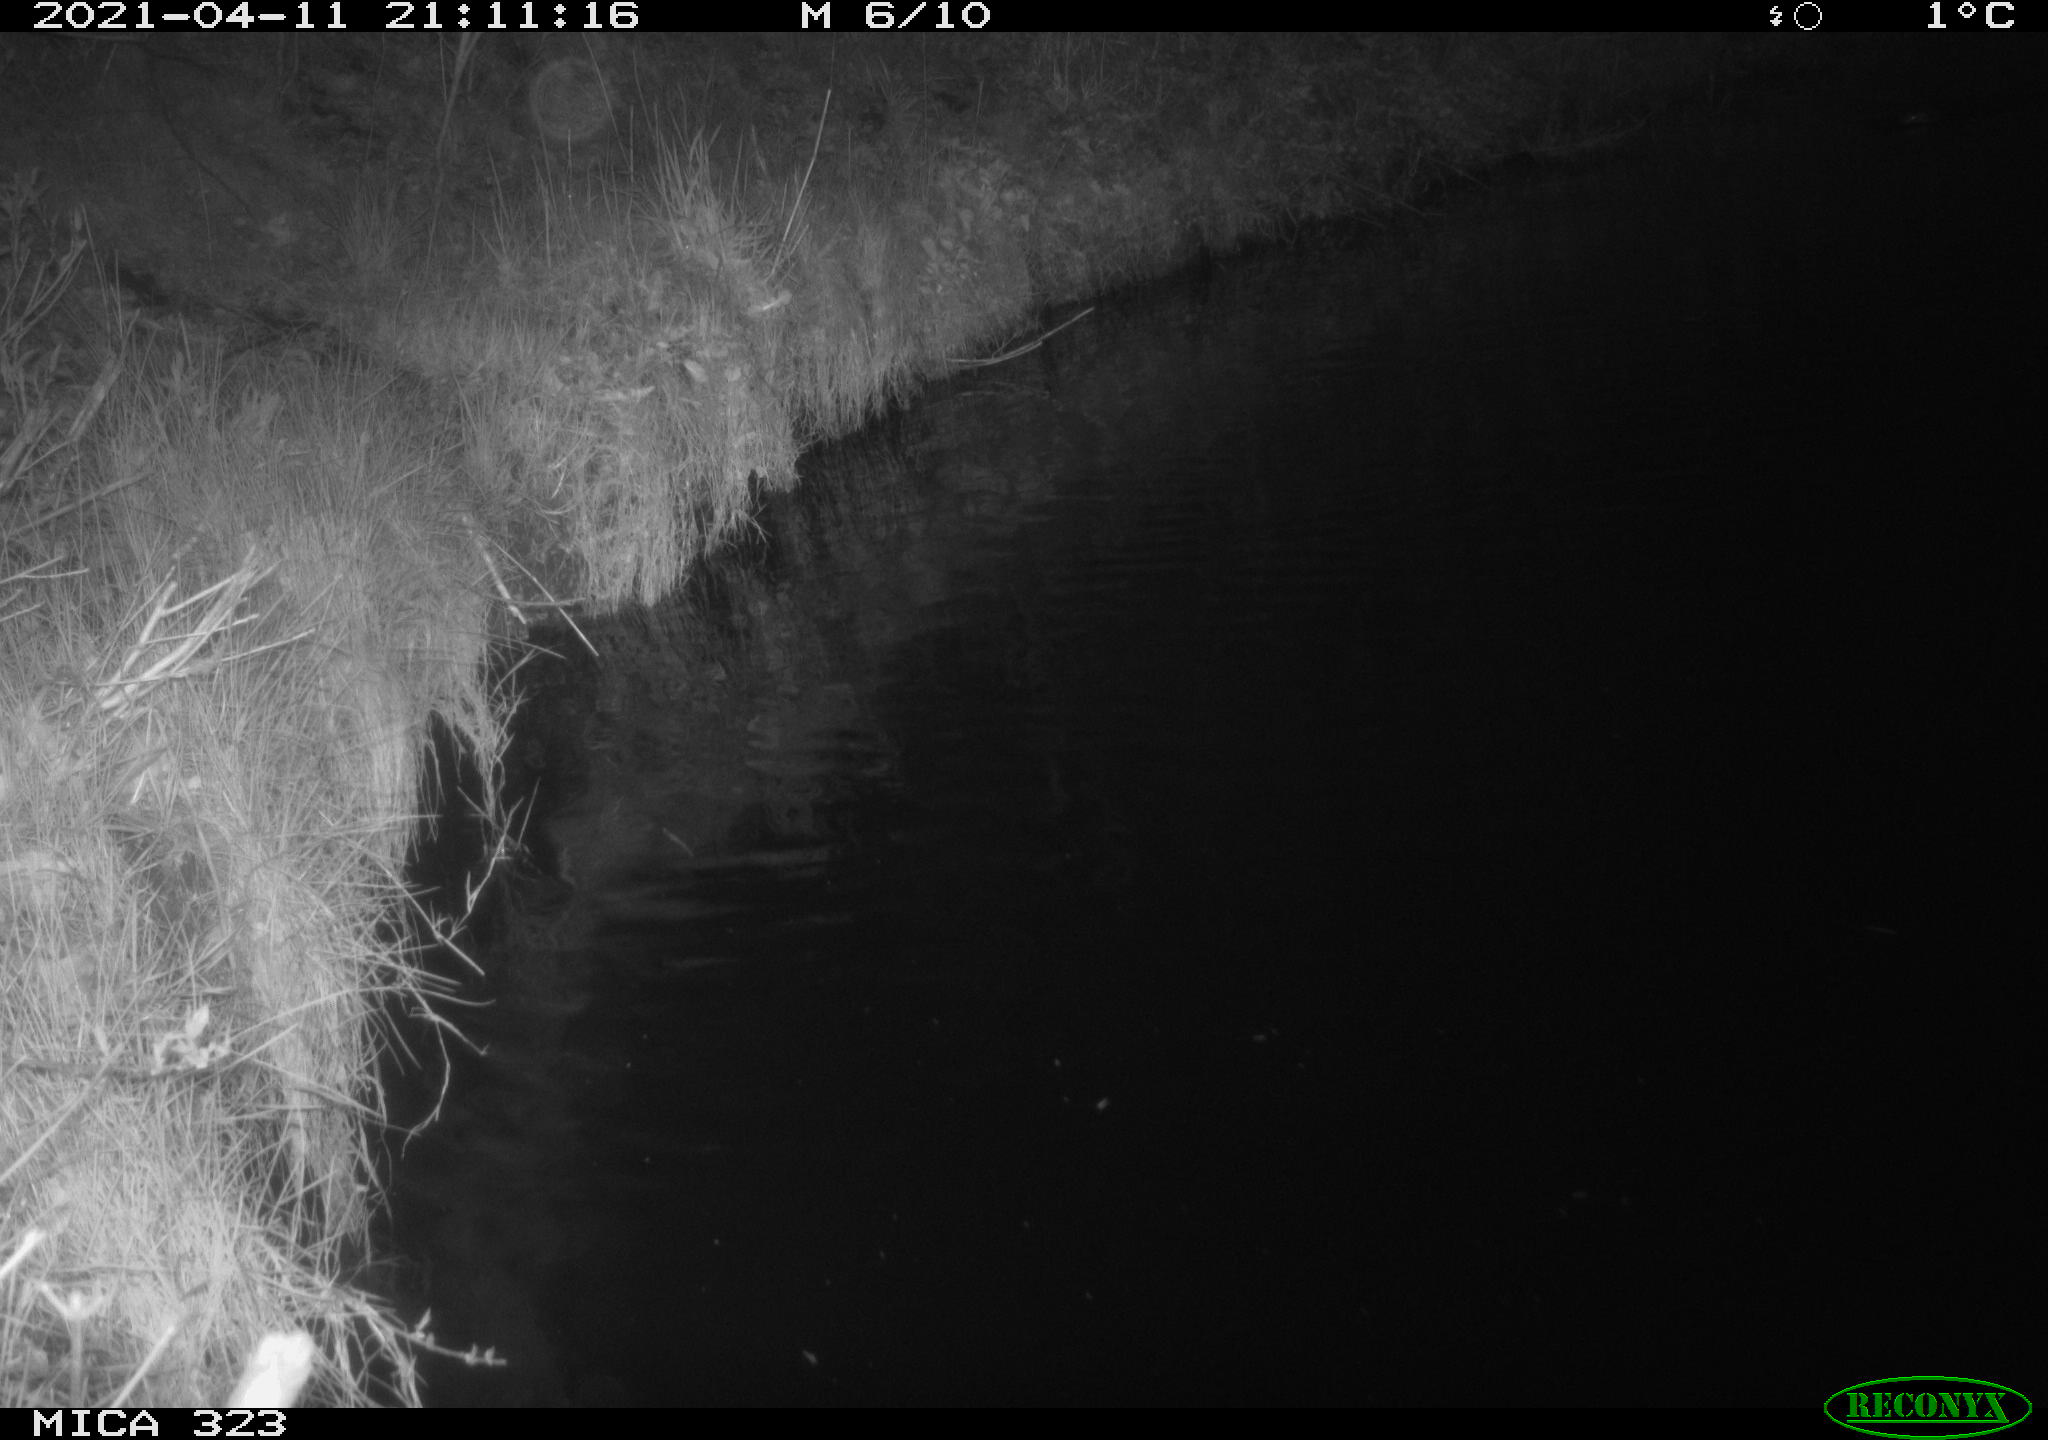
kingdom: Animalia
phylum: Chordata
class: Mammalia
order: Rodentia
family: Muridae
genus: Rattus
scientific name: Rattus norvegicus
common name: Brown rat
